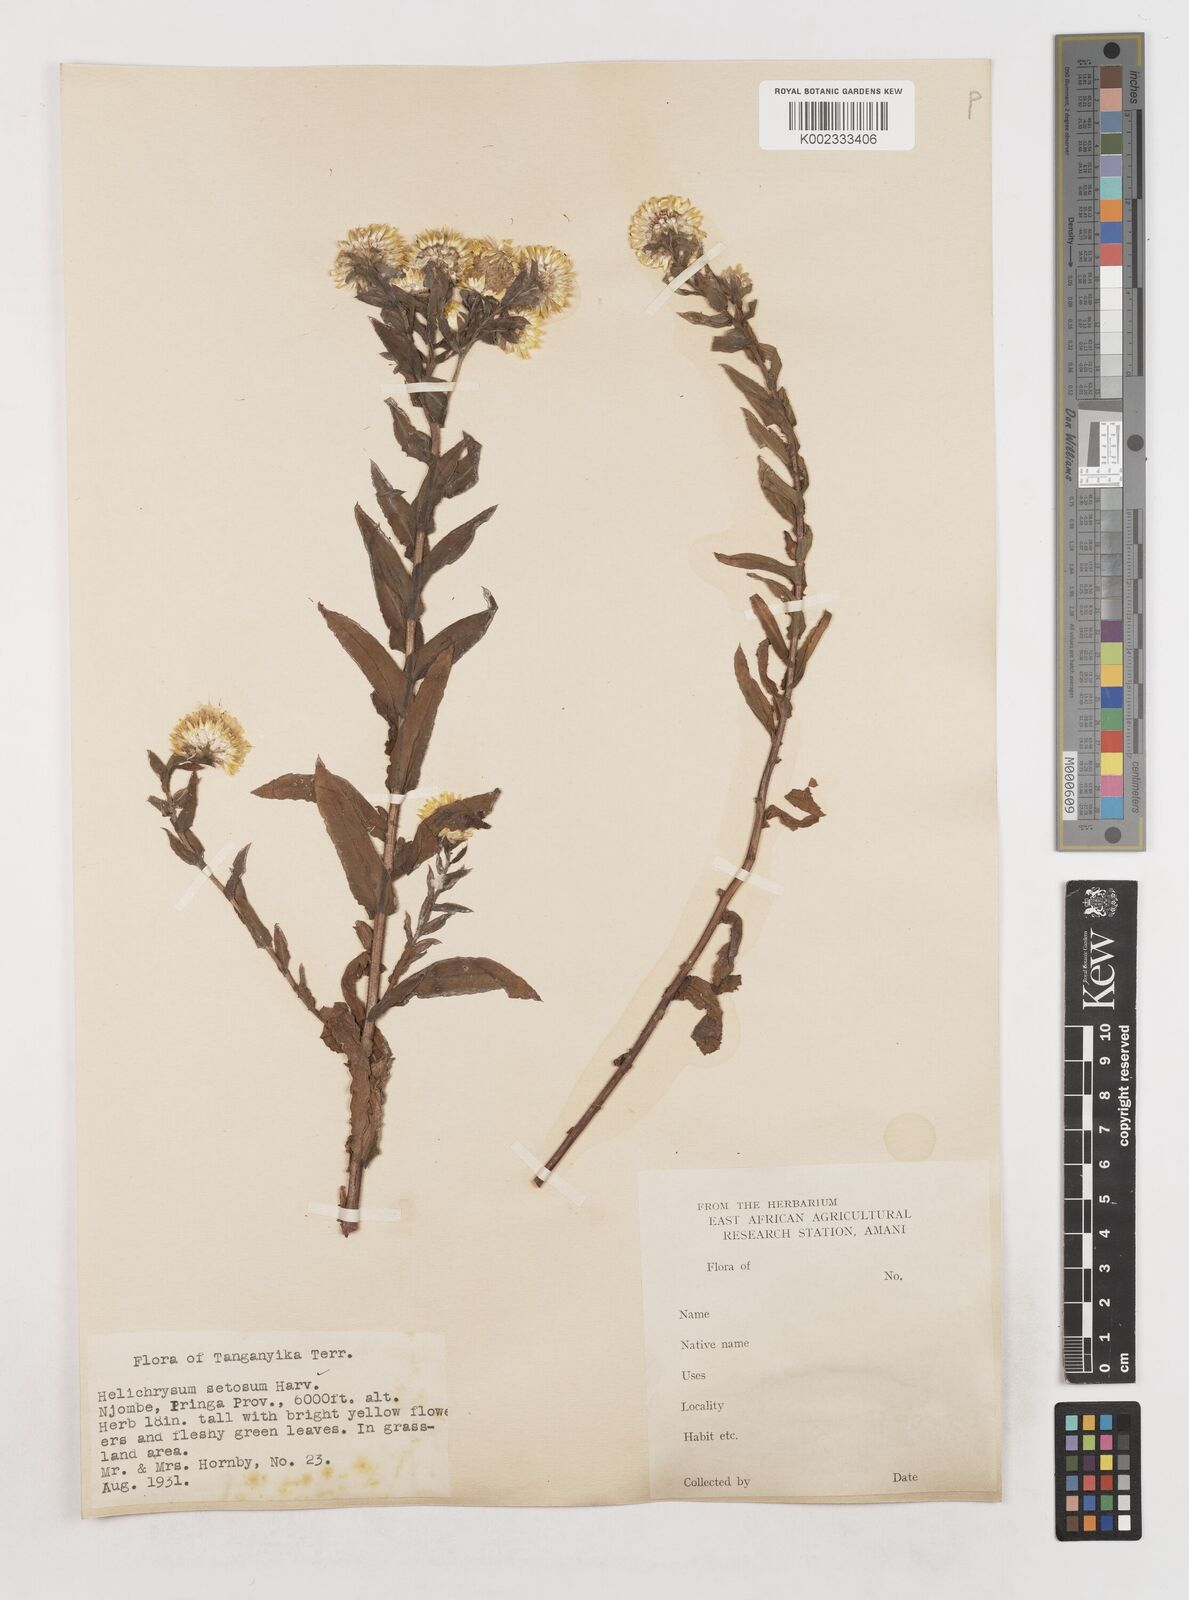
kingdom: Plantae
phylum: Tracheophyta
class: Magnoliopsida
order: Asterales
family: Asteraceae
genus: Helichrysum
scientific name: Helichrysum setosum
